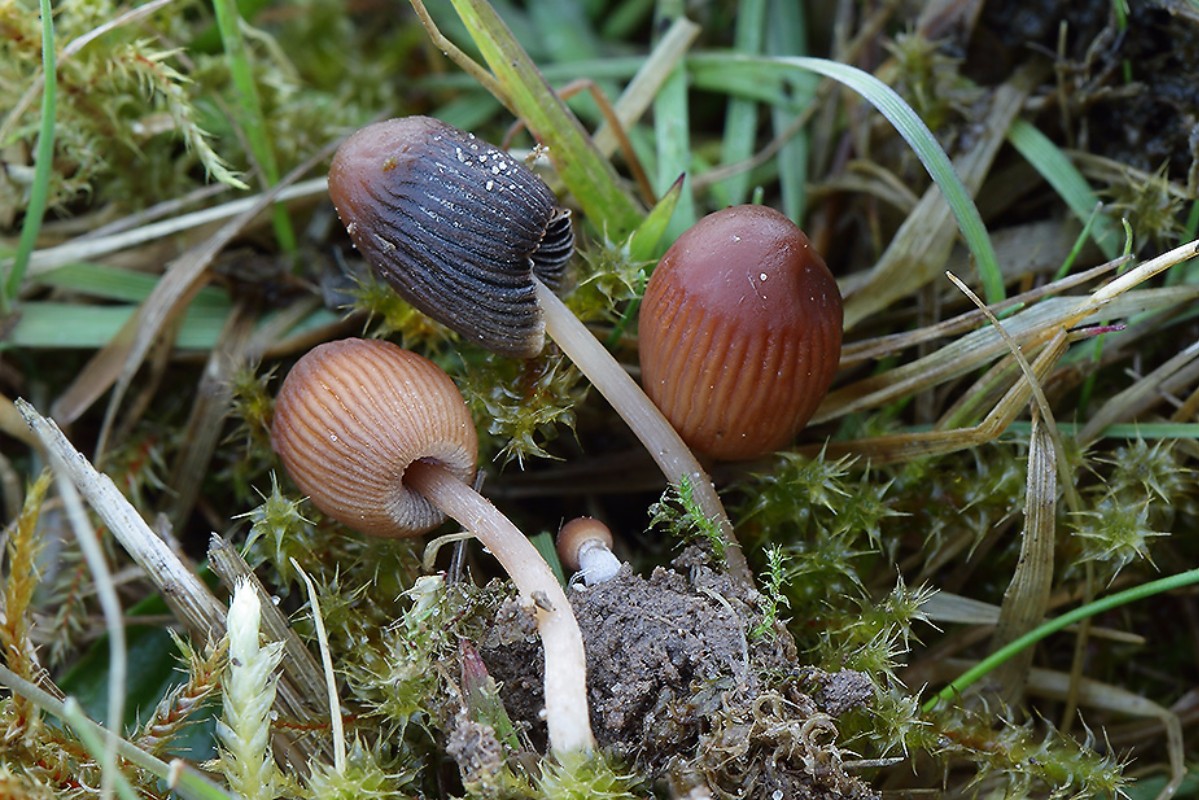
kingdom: Fungi
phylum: Basidiomycota
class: Agaricomycetes
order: Agaricales
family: Psathyrellaceae
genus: Parasola
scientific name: Parasola schroeteri
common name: bredsporet hjulhat
